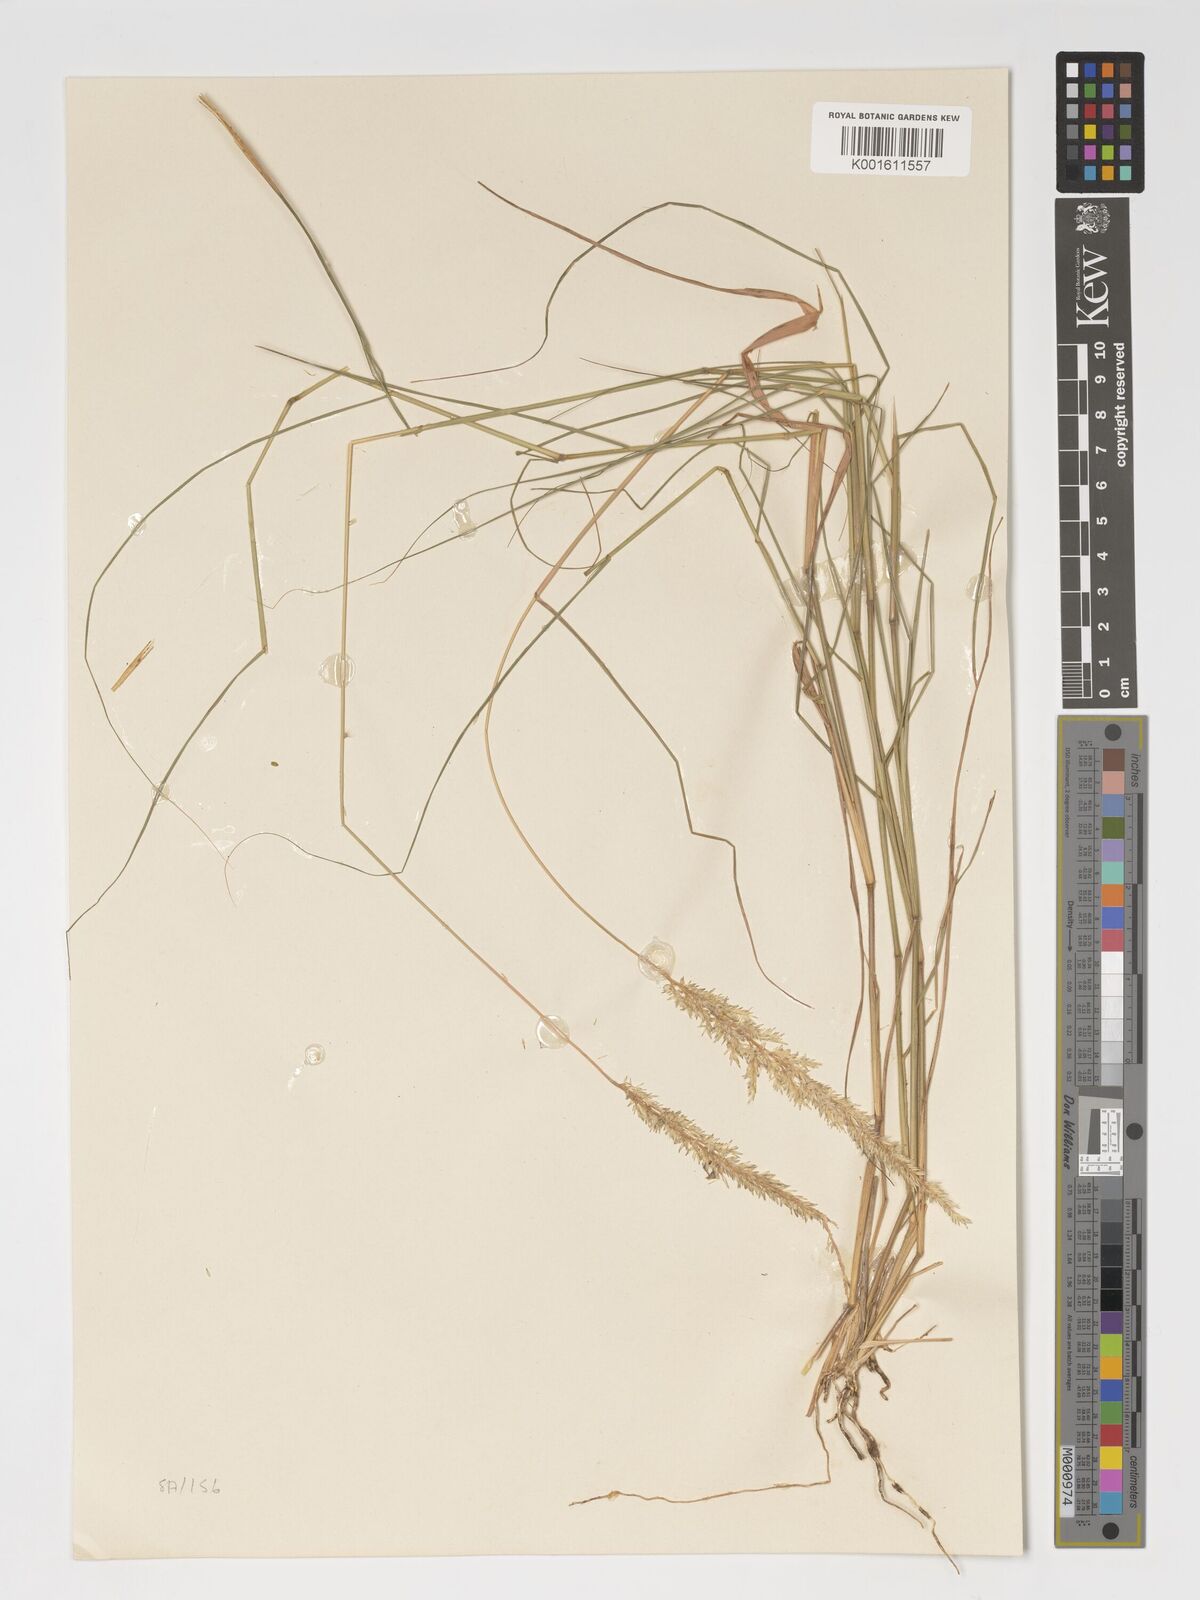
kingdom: Plantae
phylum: Tracheophyta
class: Liliopsida
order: Poales
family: Poaceae
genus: Enneapogon
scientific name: Enneapogon cenchroides
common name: Soft feather pappusgrass
